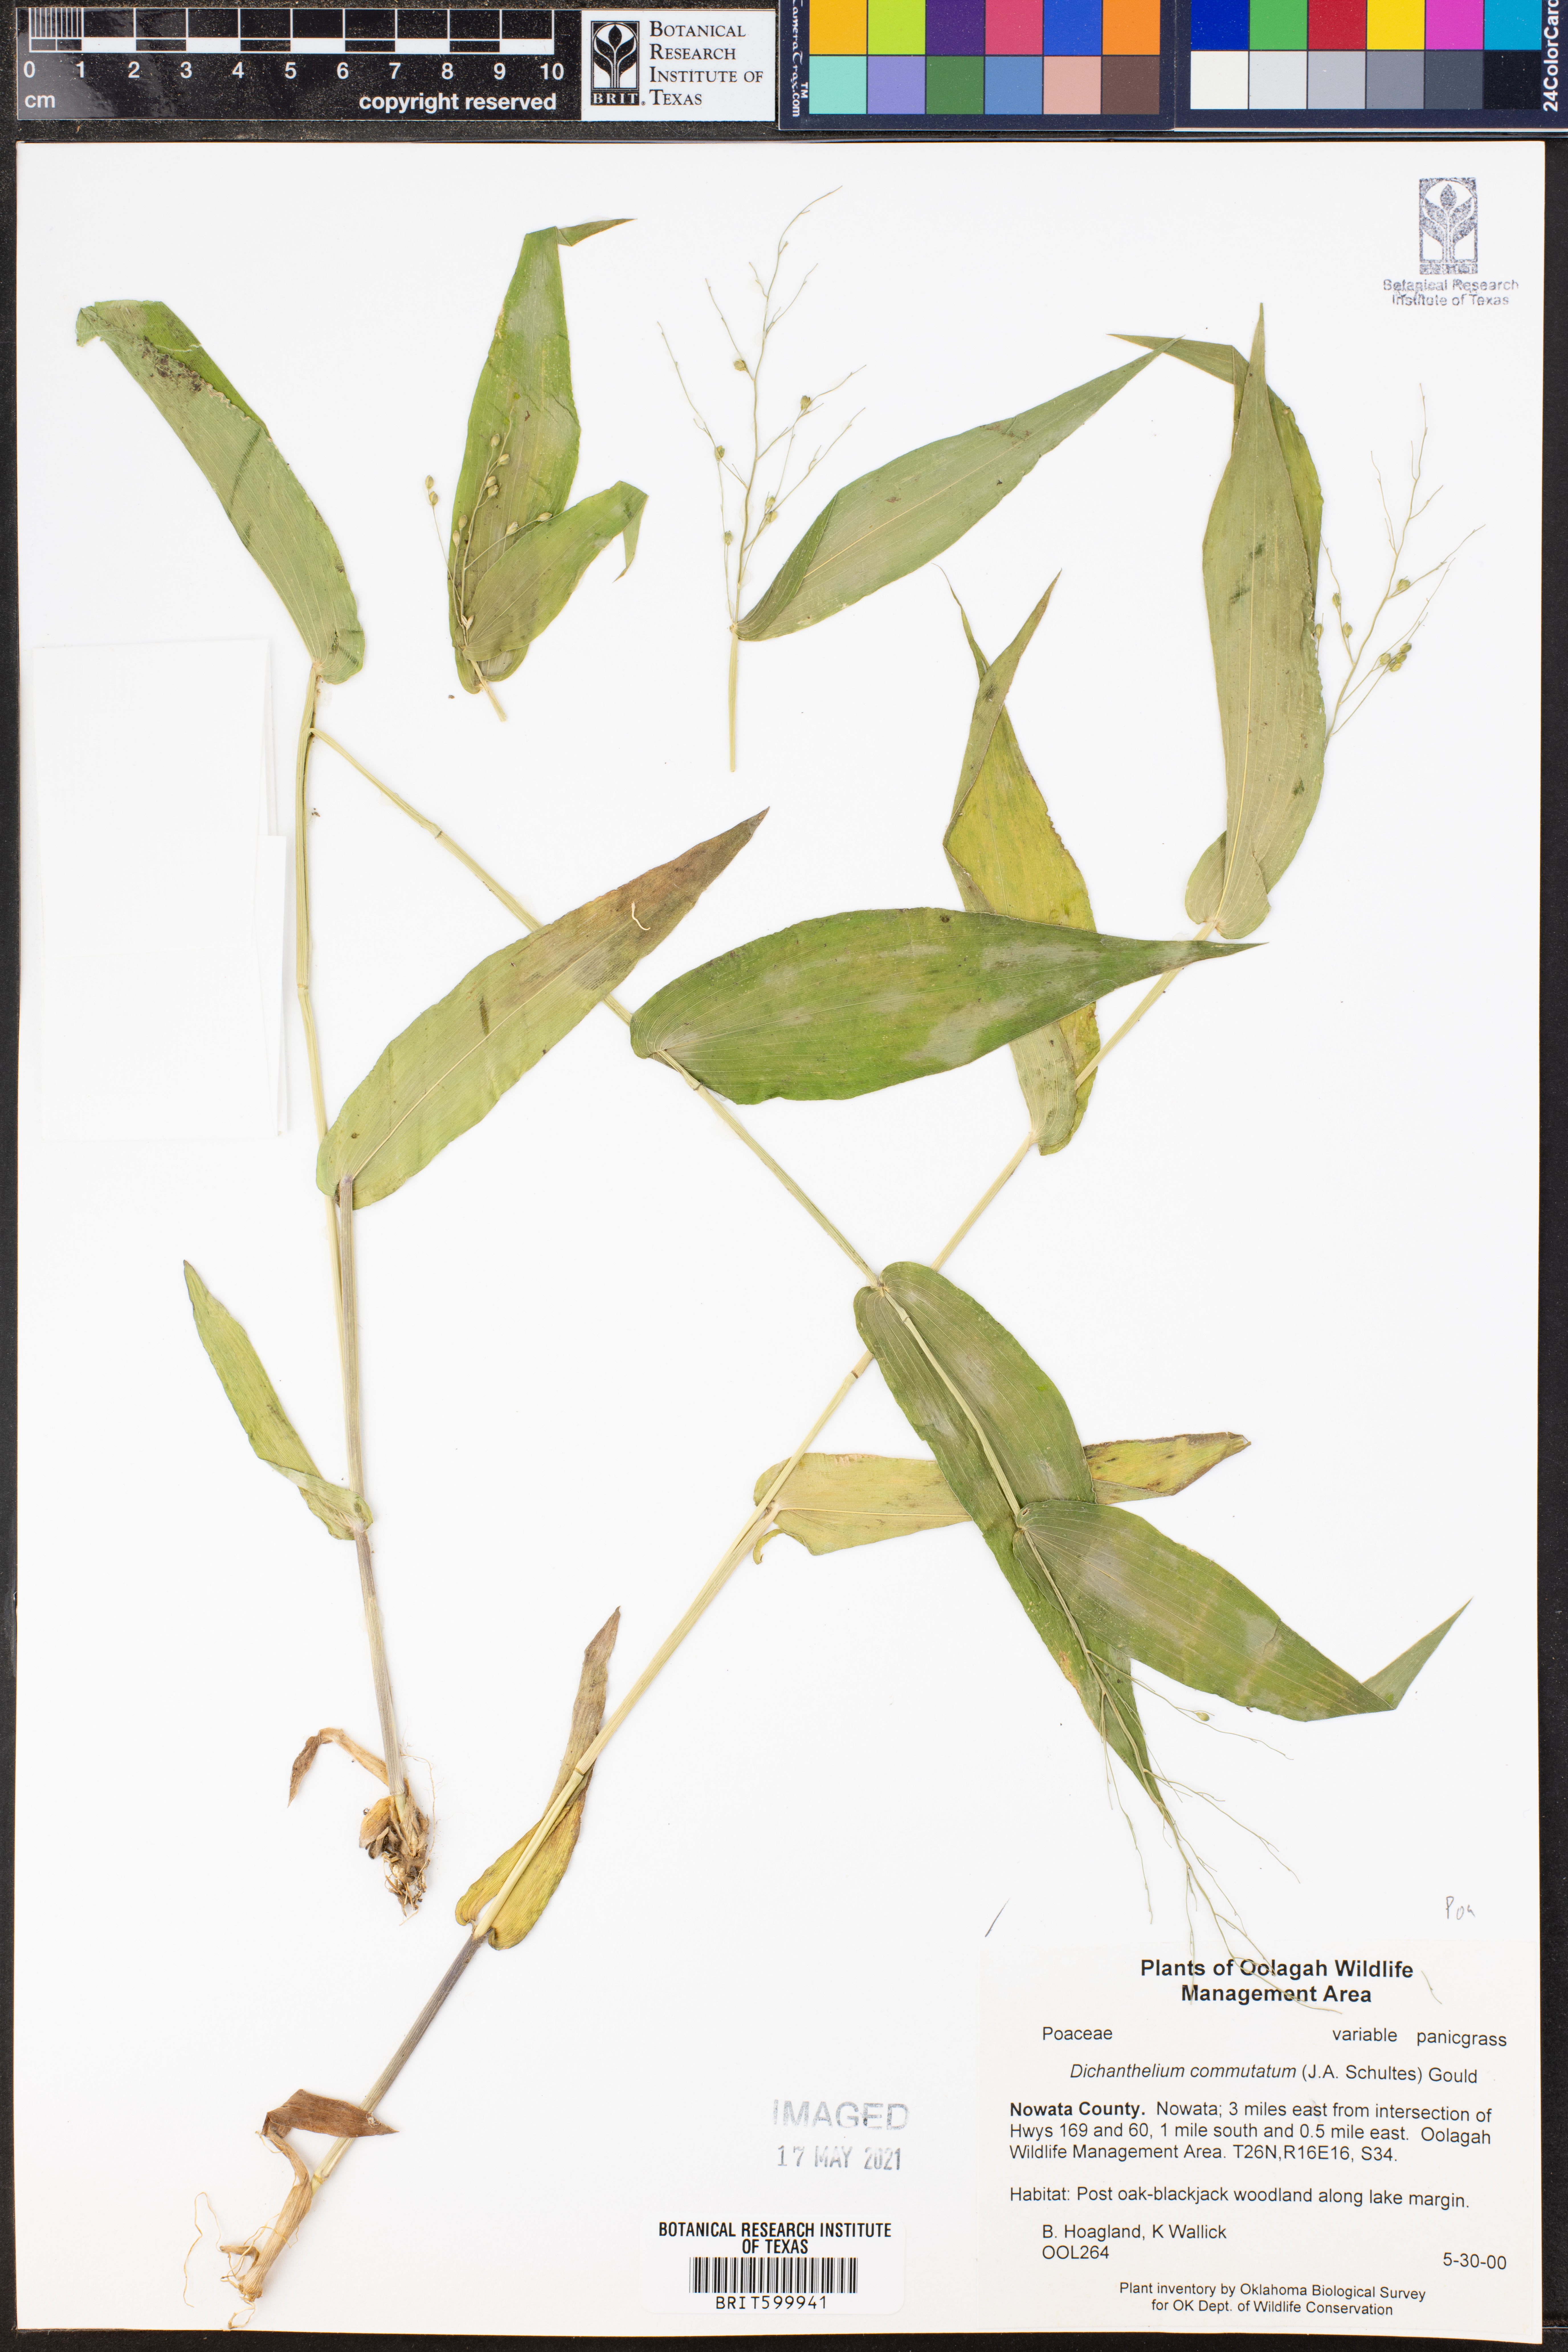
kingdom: Plantae
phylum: Tracheophyta
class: Liliopsida
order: Poales
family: Poaceae
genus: Dichanthelium
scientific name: Dichanthelium commutatum
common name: Variable witchgrass
